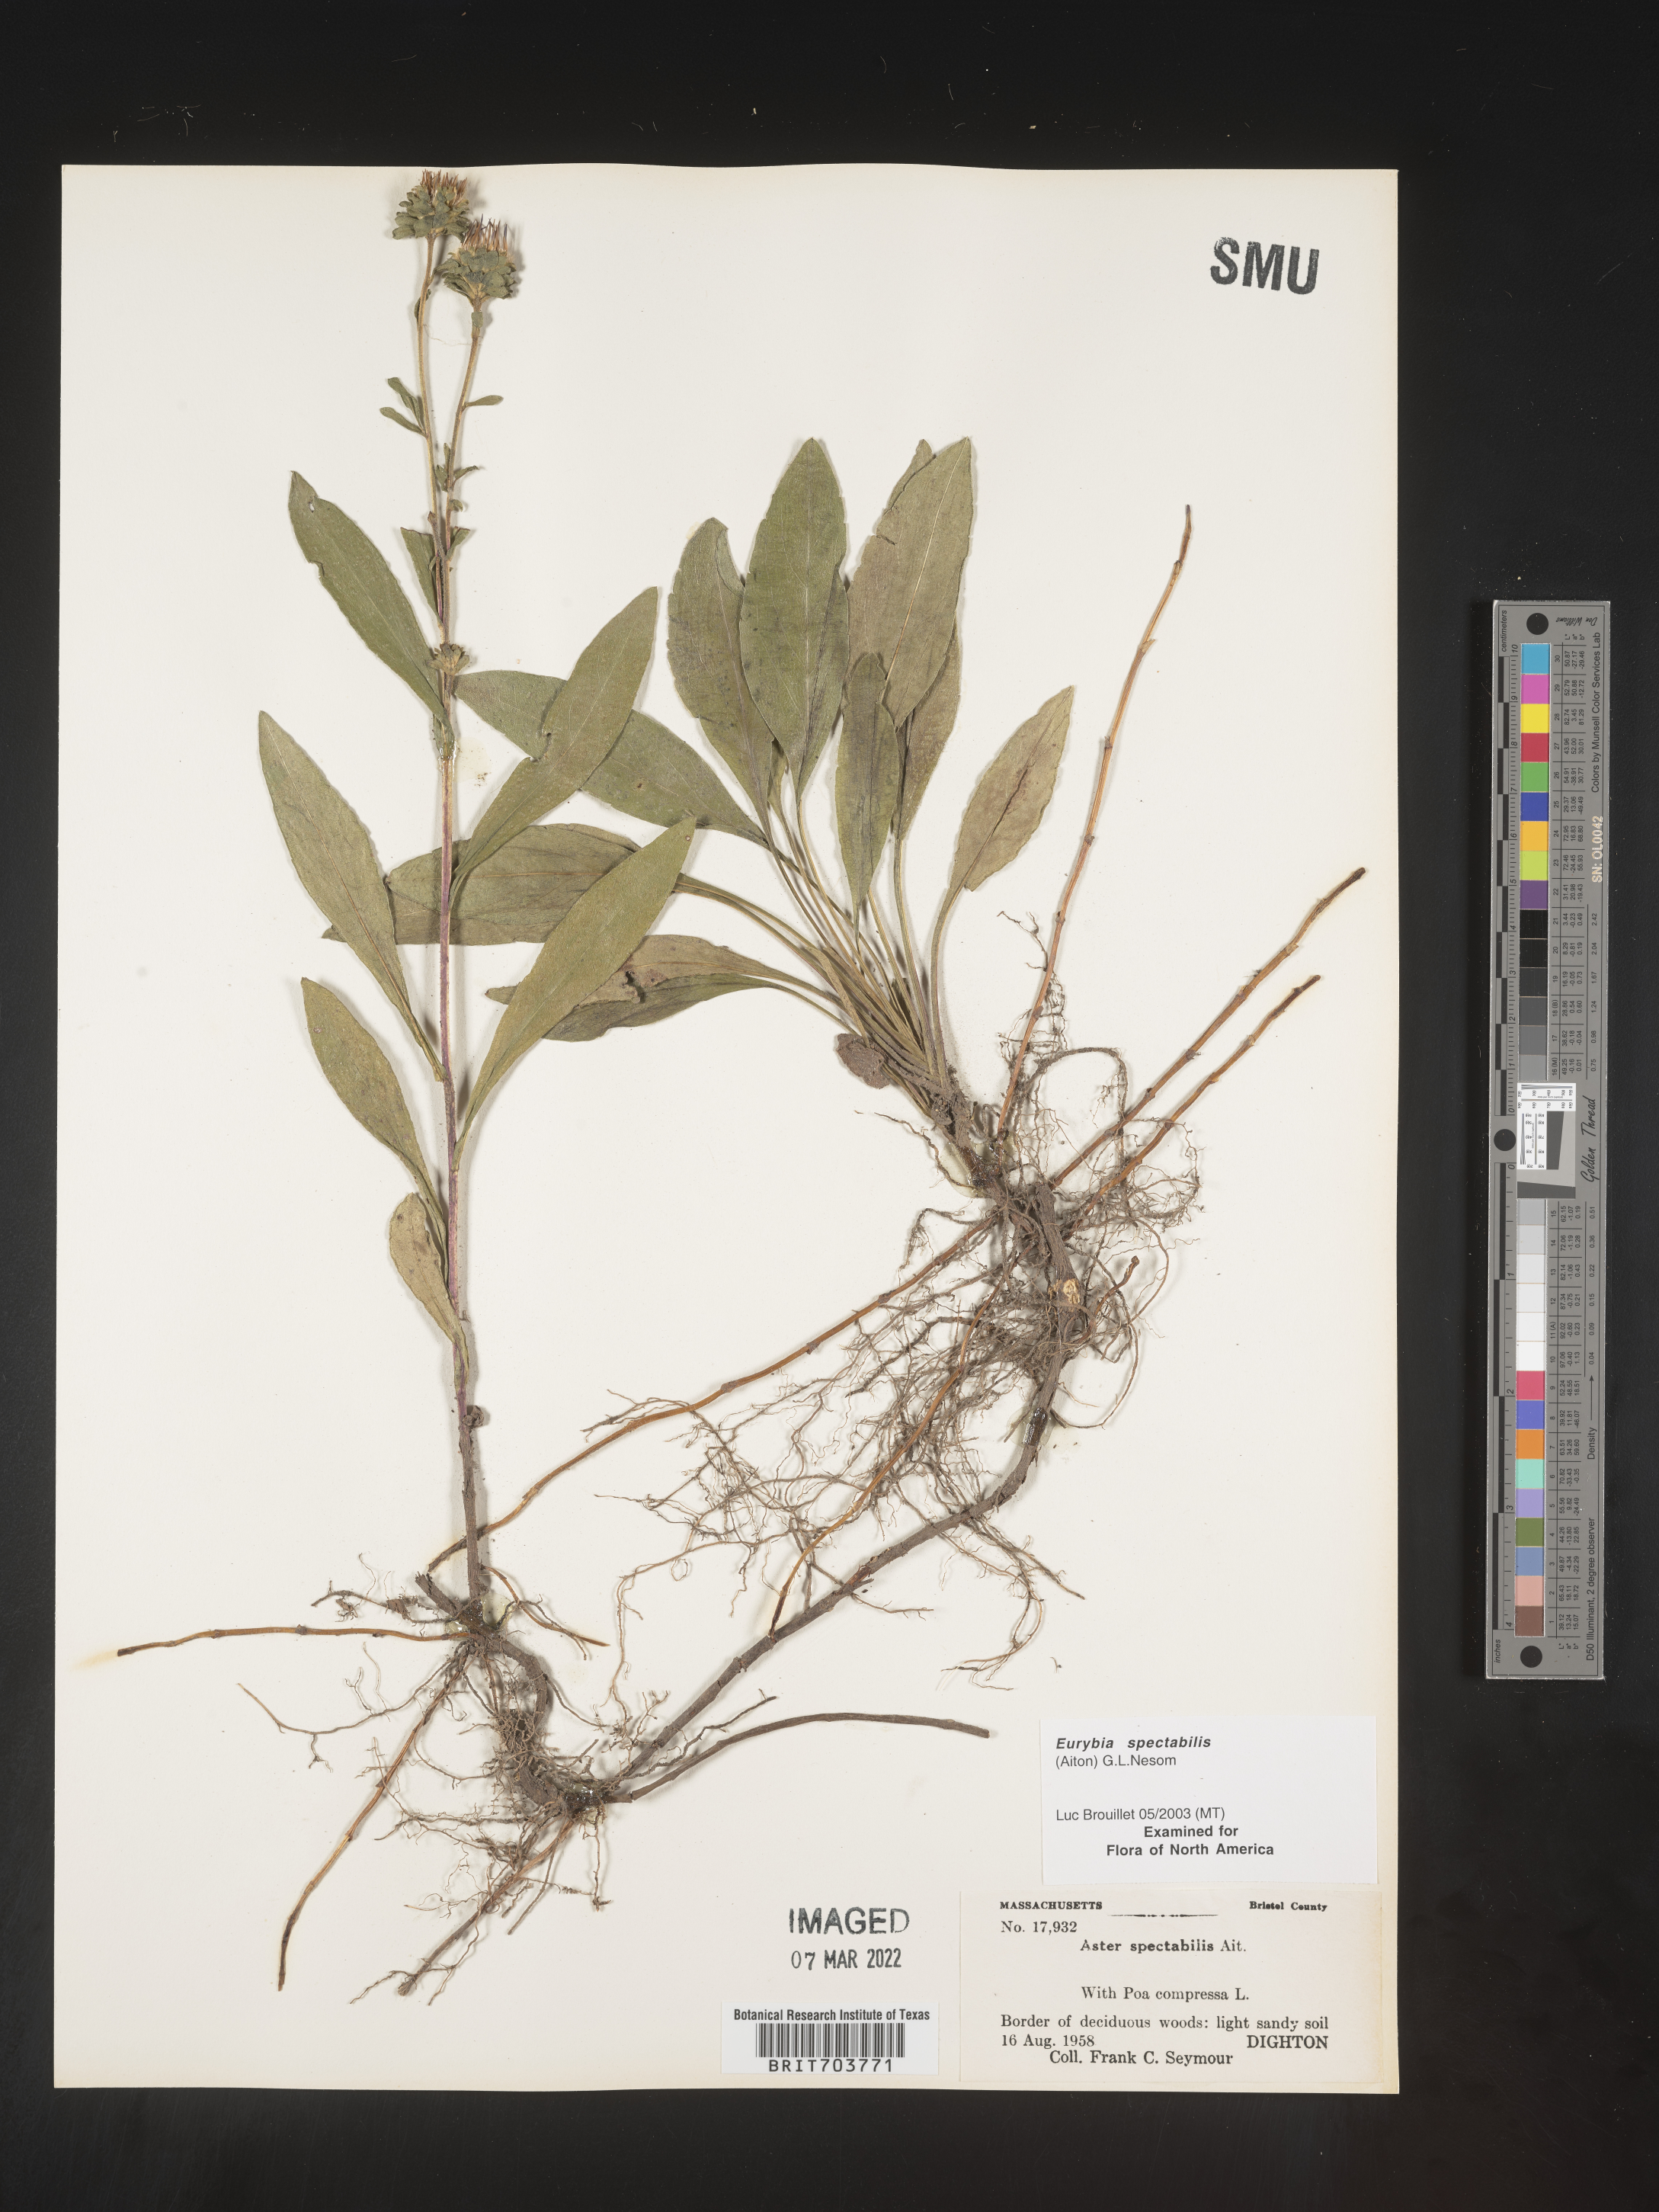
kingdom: Plantae
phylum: Tracheophyta
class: Magnoliopsida
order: Asterales
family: Asteraceae
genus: Eurybia
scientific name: Eurybia spectabilis
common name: Low showy aster
